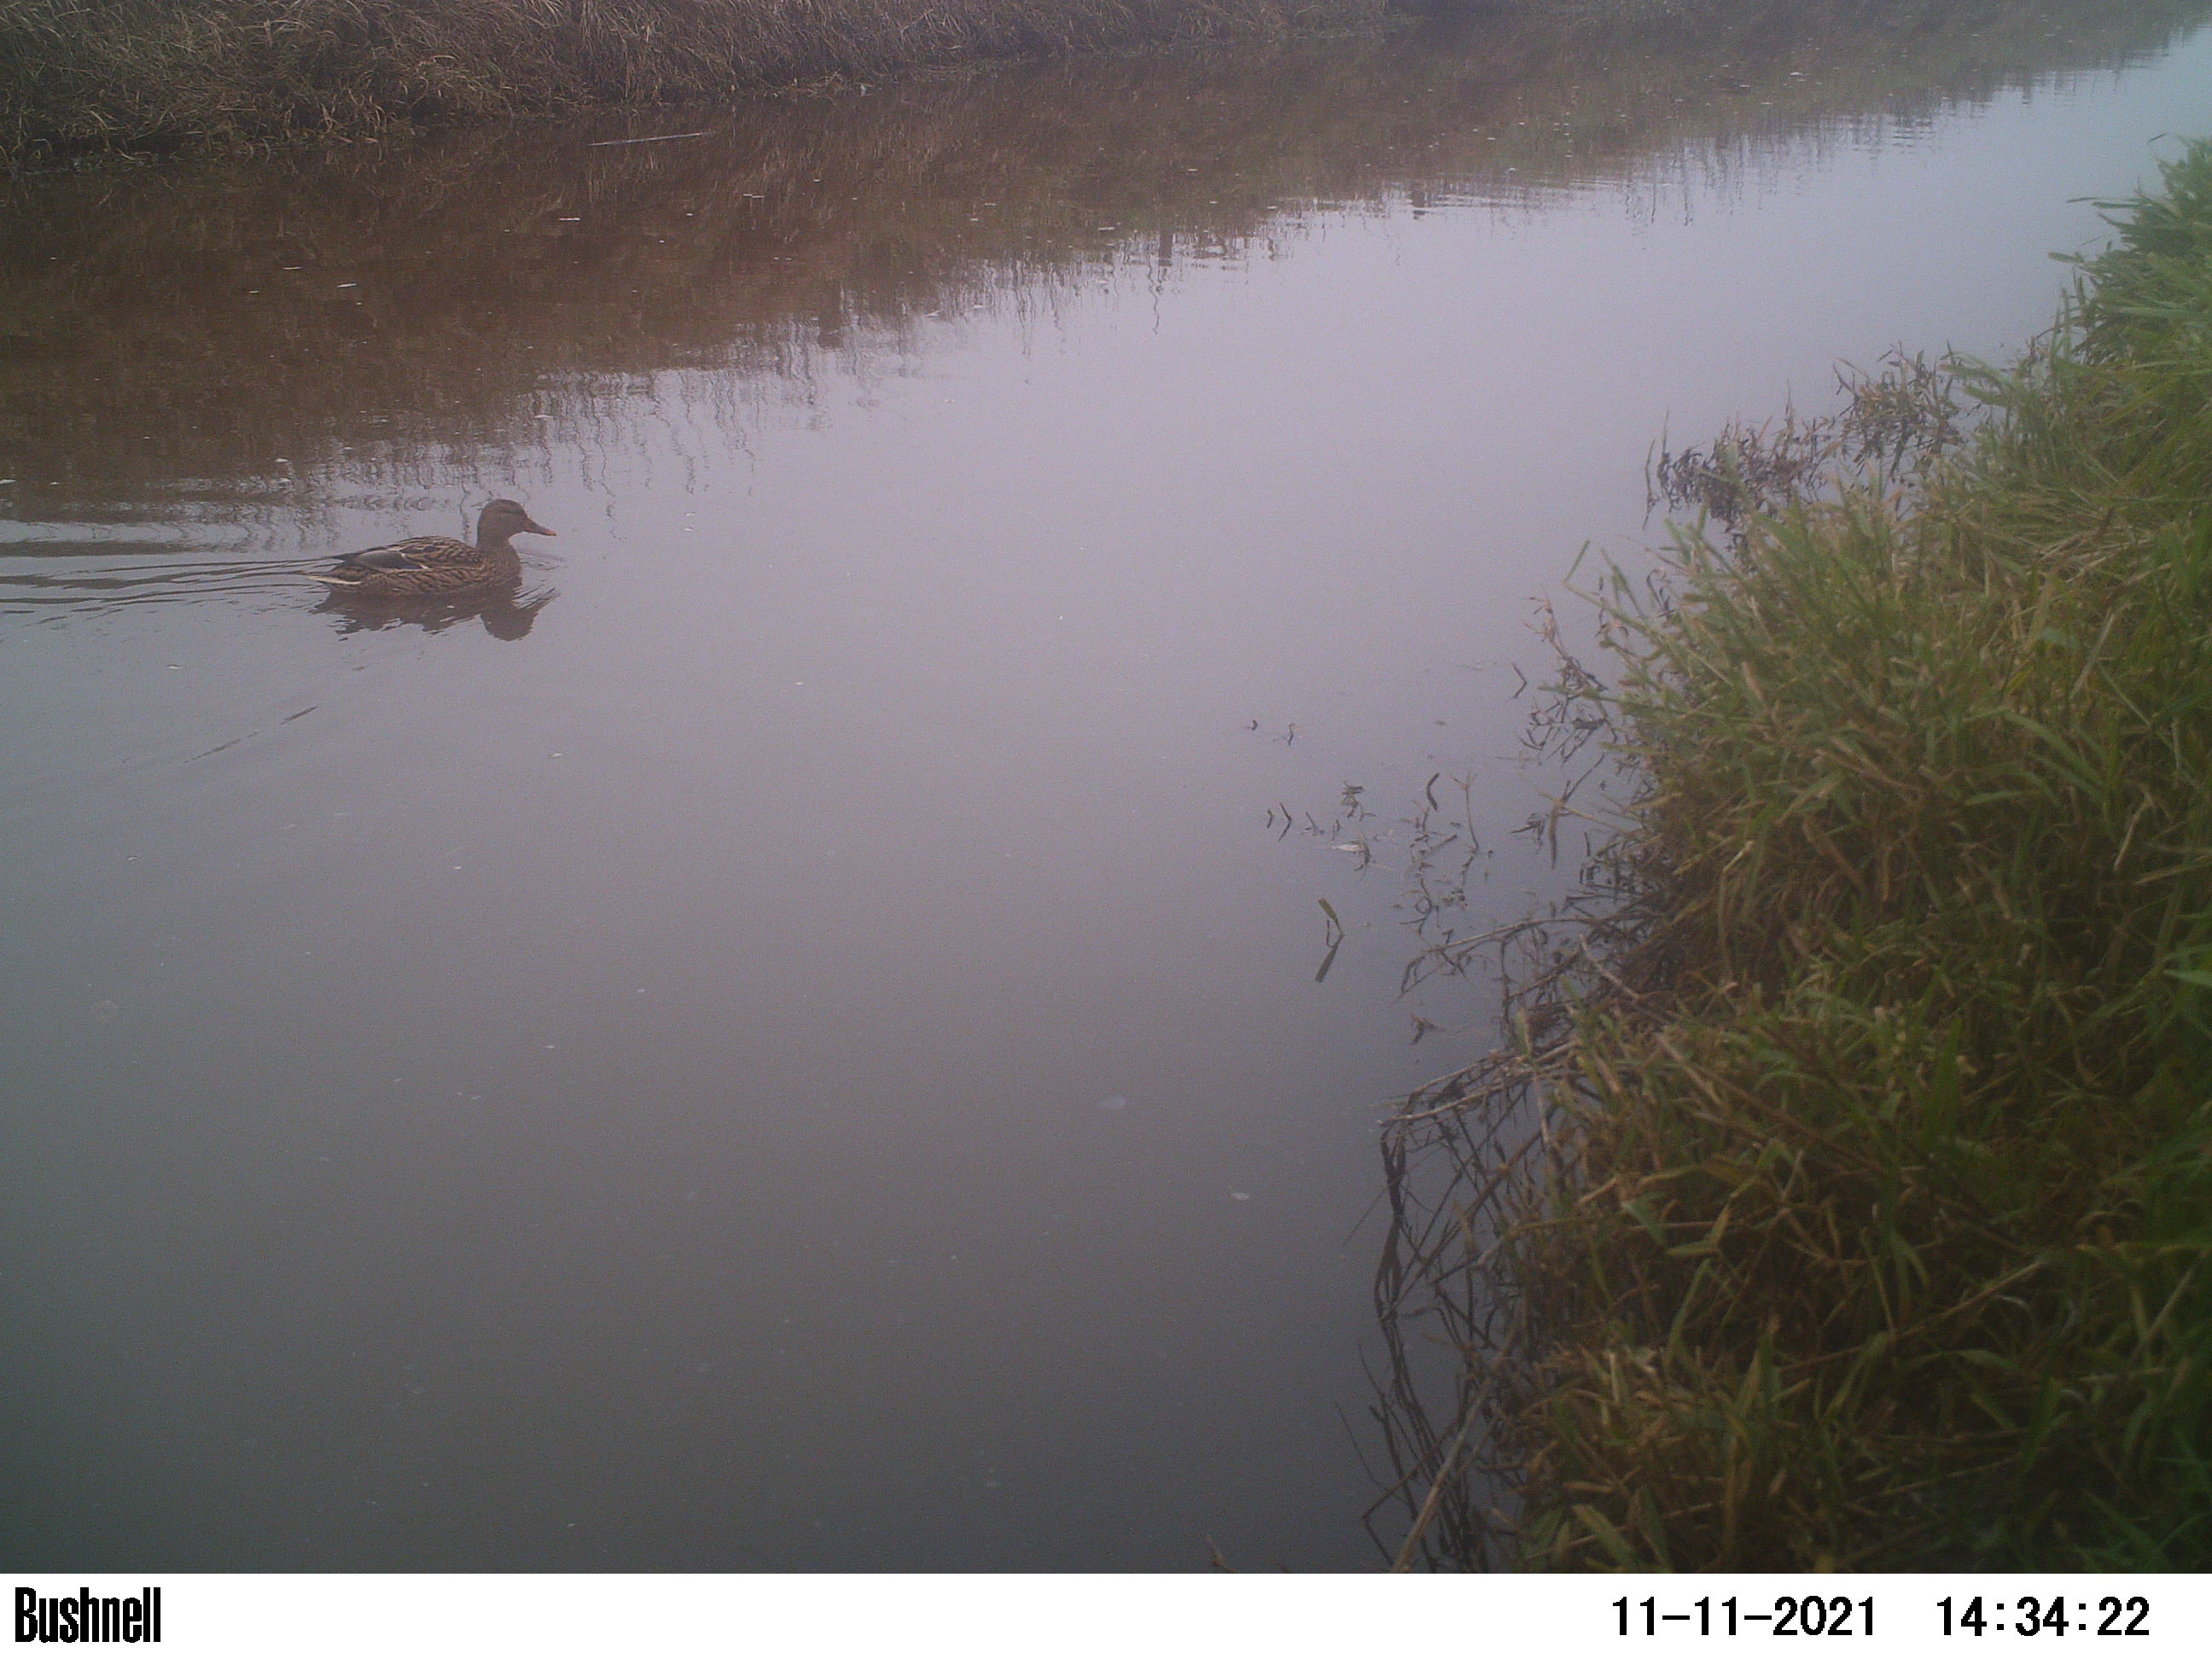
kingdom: Animalia
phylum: Chordata
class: Aves
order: Anseriformes
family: Anatidae
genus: Anas
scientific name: Anas
